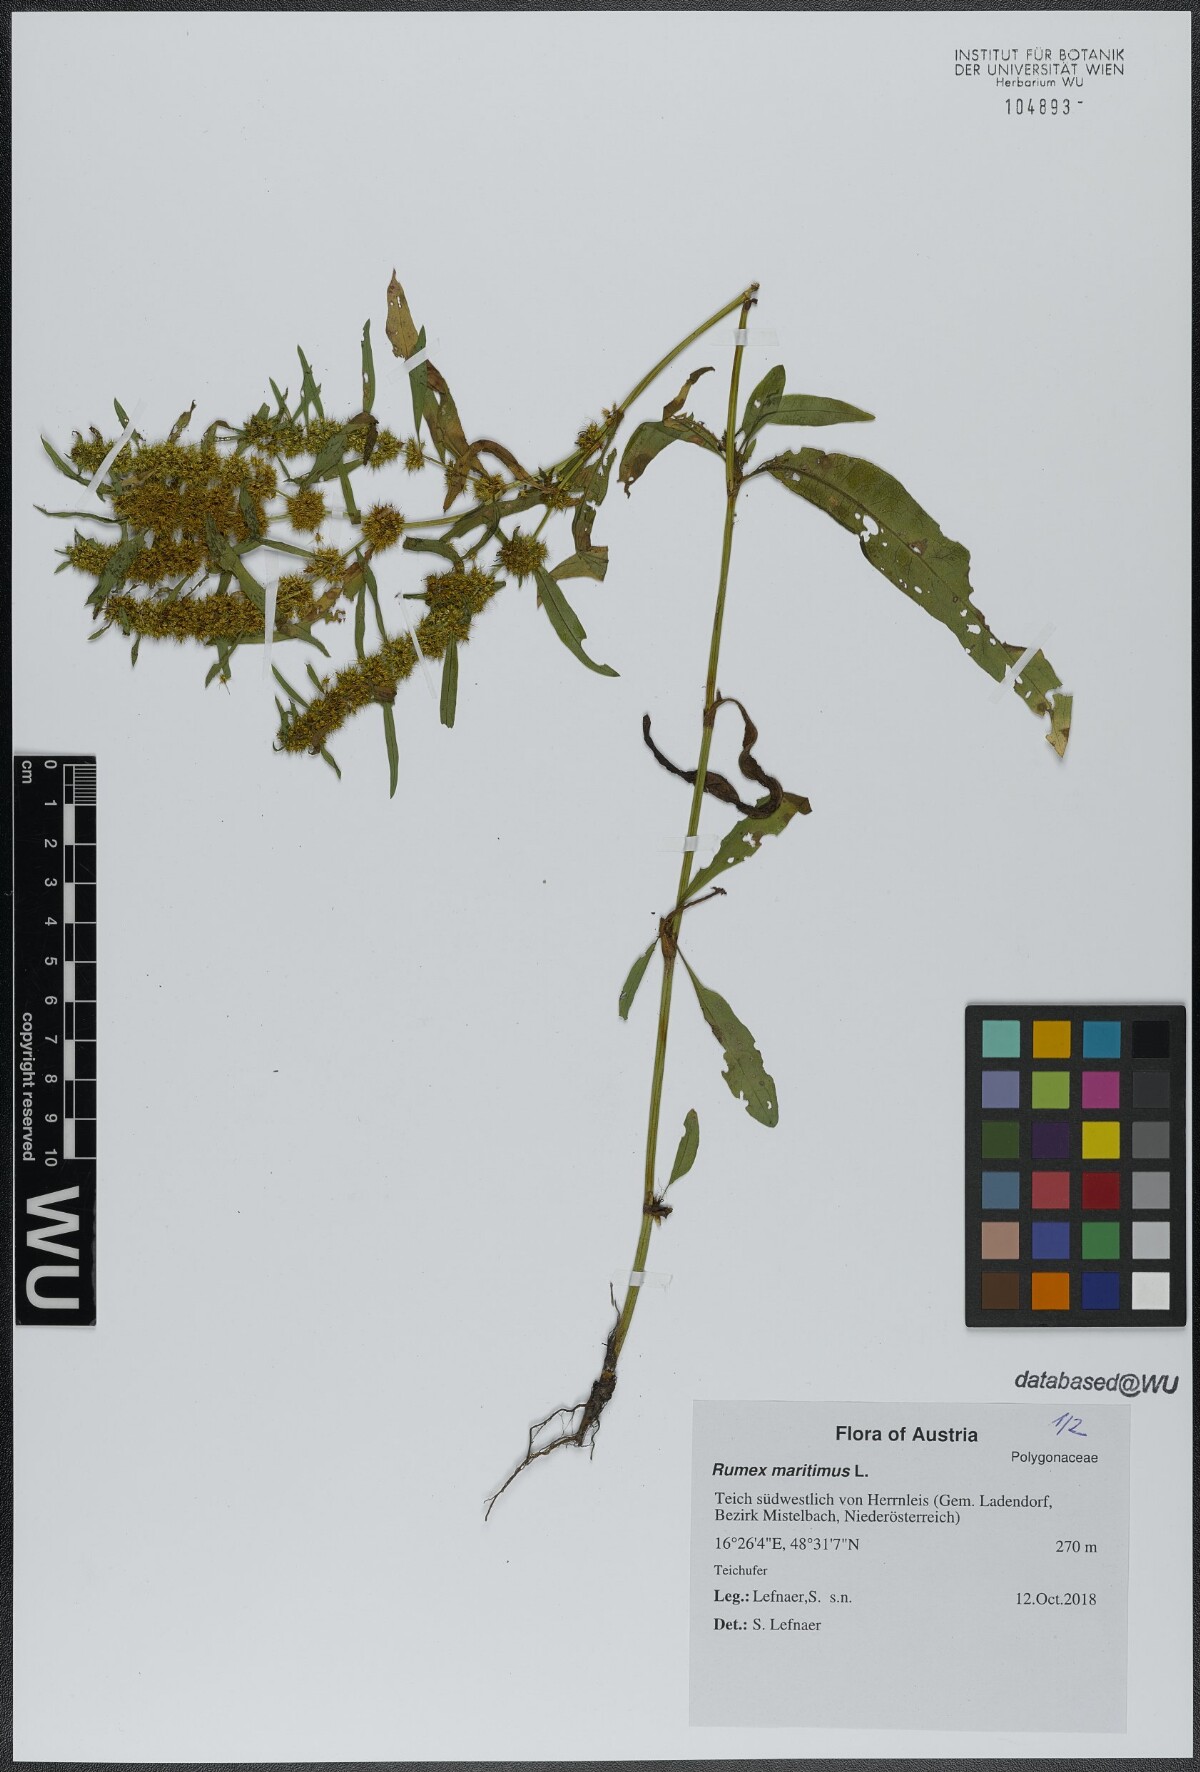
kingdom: Plantae
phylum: Tracheophyta
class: Magnoliopsida
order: Caryophyllales
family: Polygonaceae
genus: Rumex
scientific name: Rumex maritimus
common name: Golden dock
